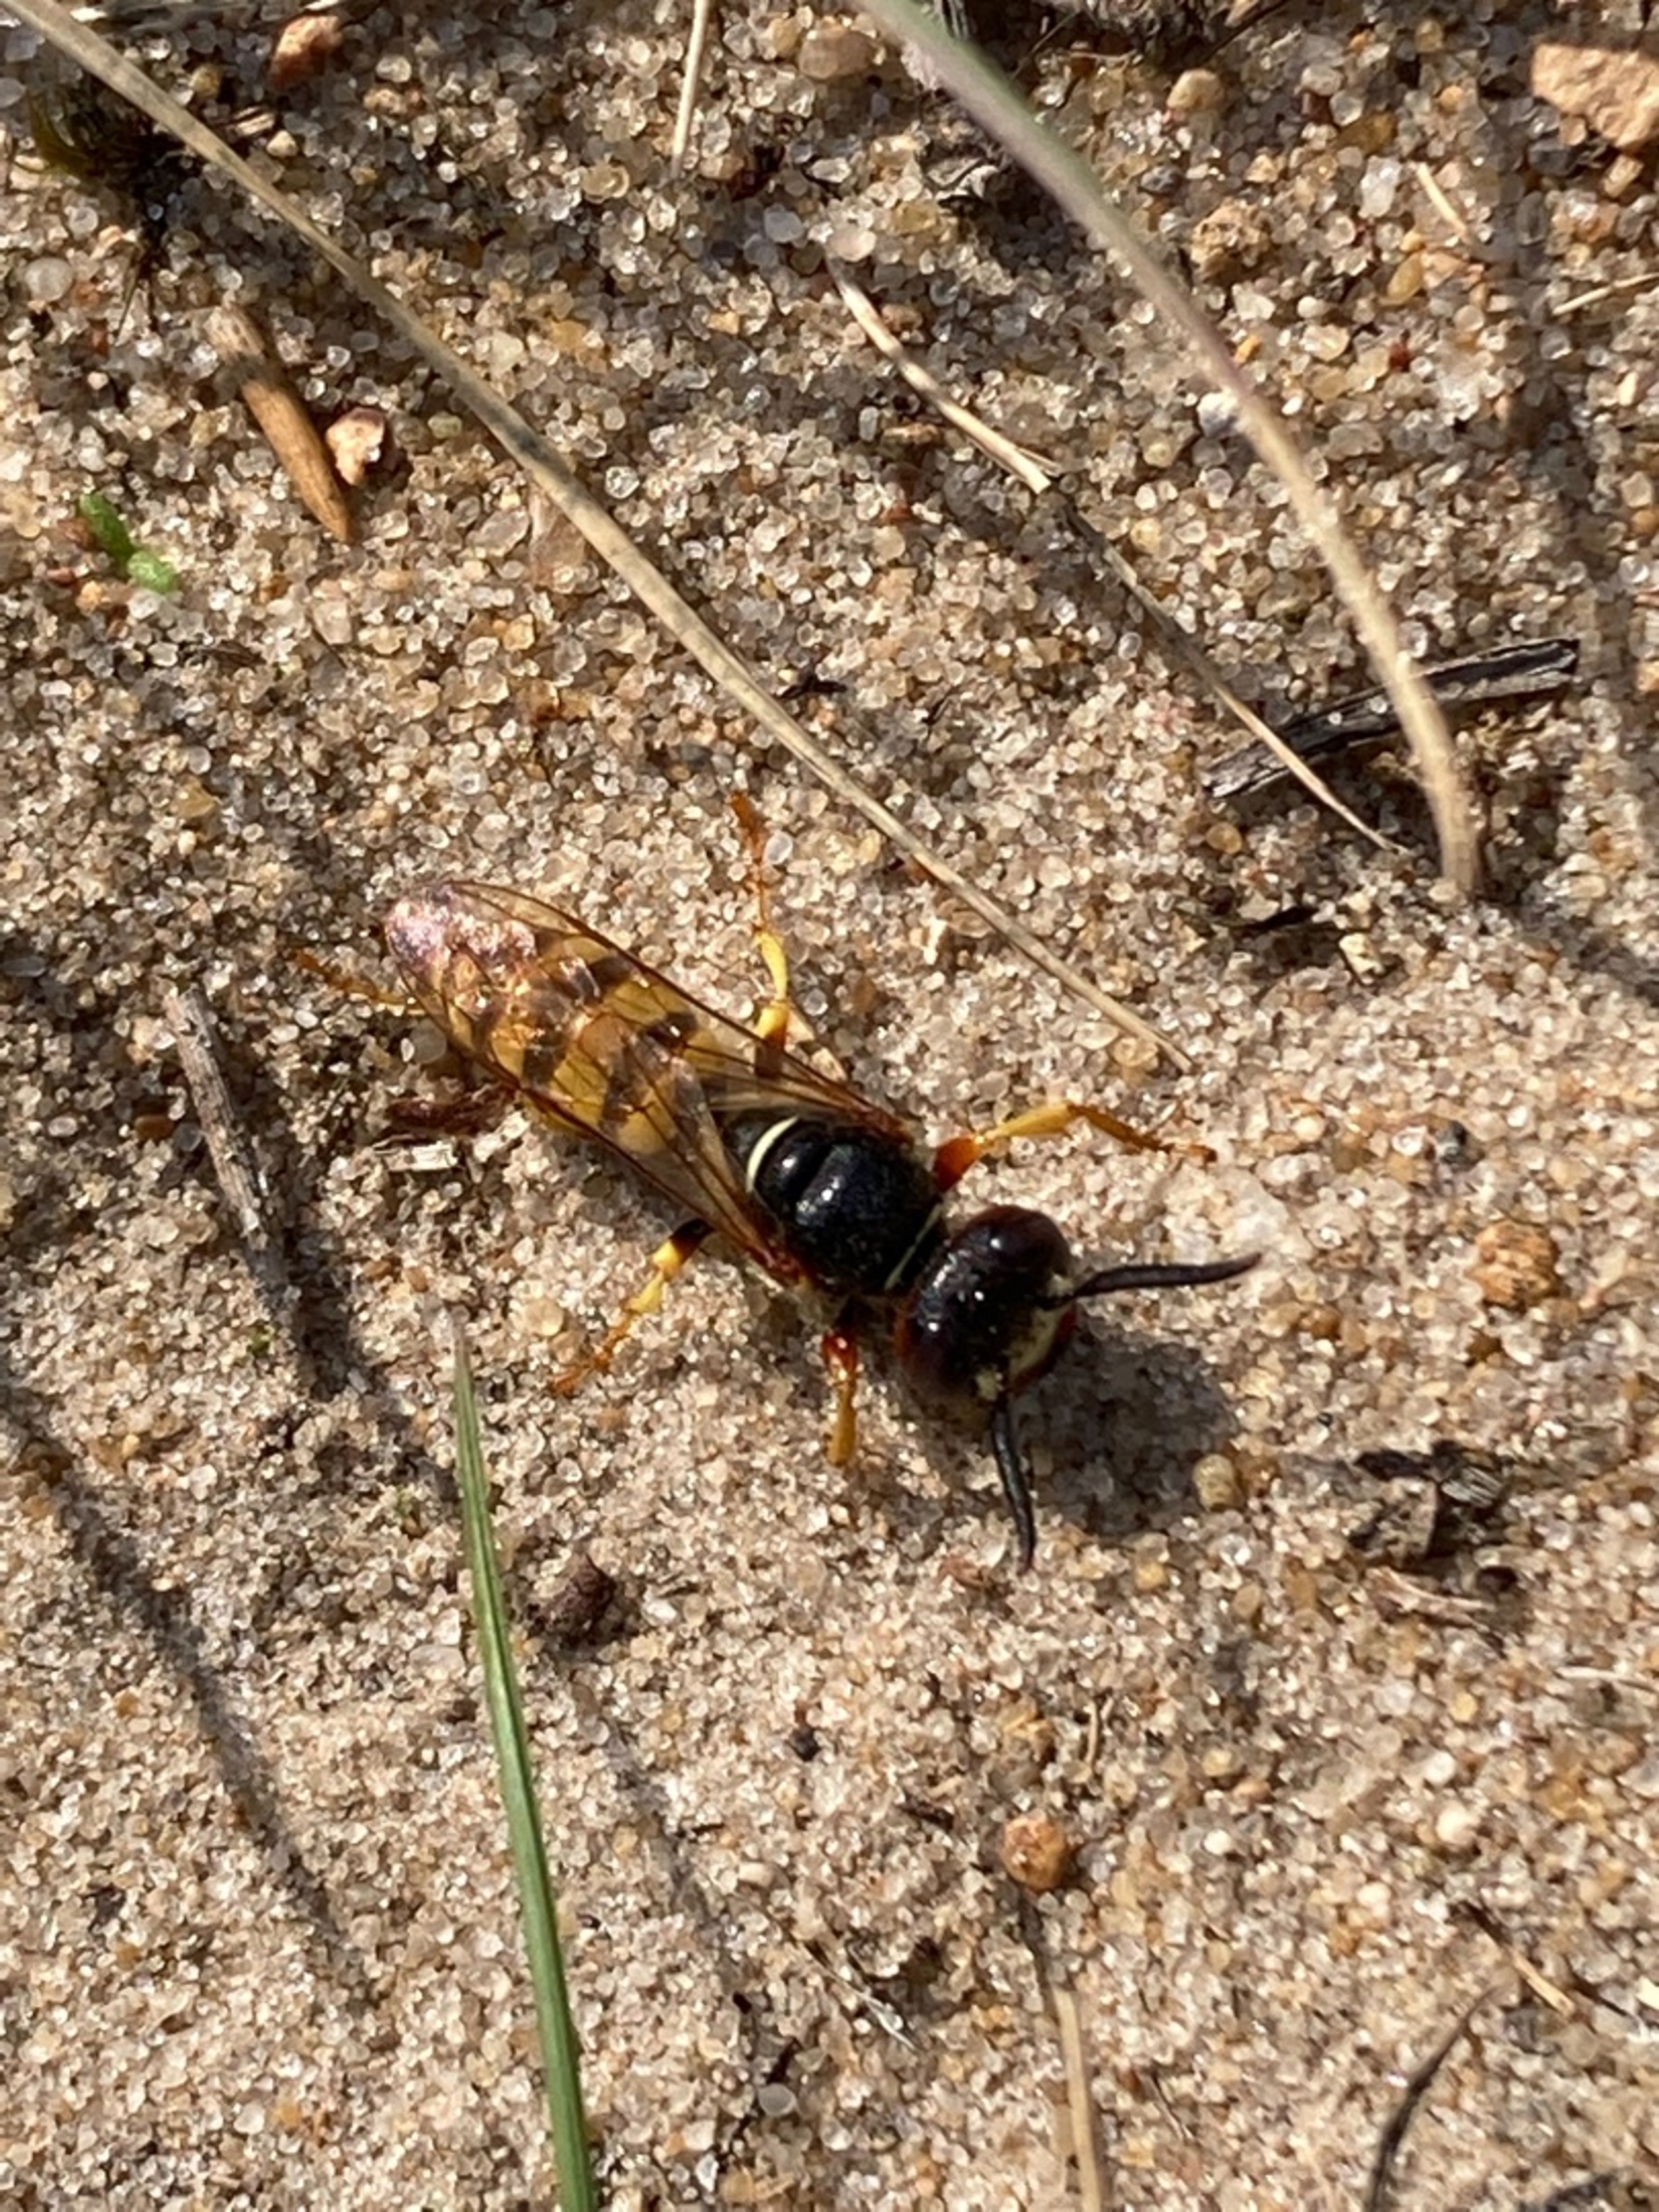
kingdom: Animalia
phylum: Arthropoda
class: Insecta
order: Hymenoptera
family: Crabronidae
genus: Philanthus
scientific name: Philanthus triangulum
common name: Biulv
